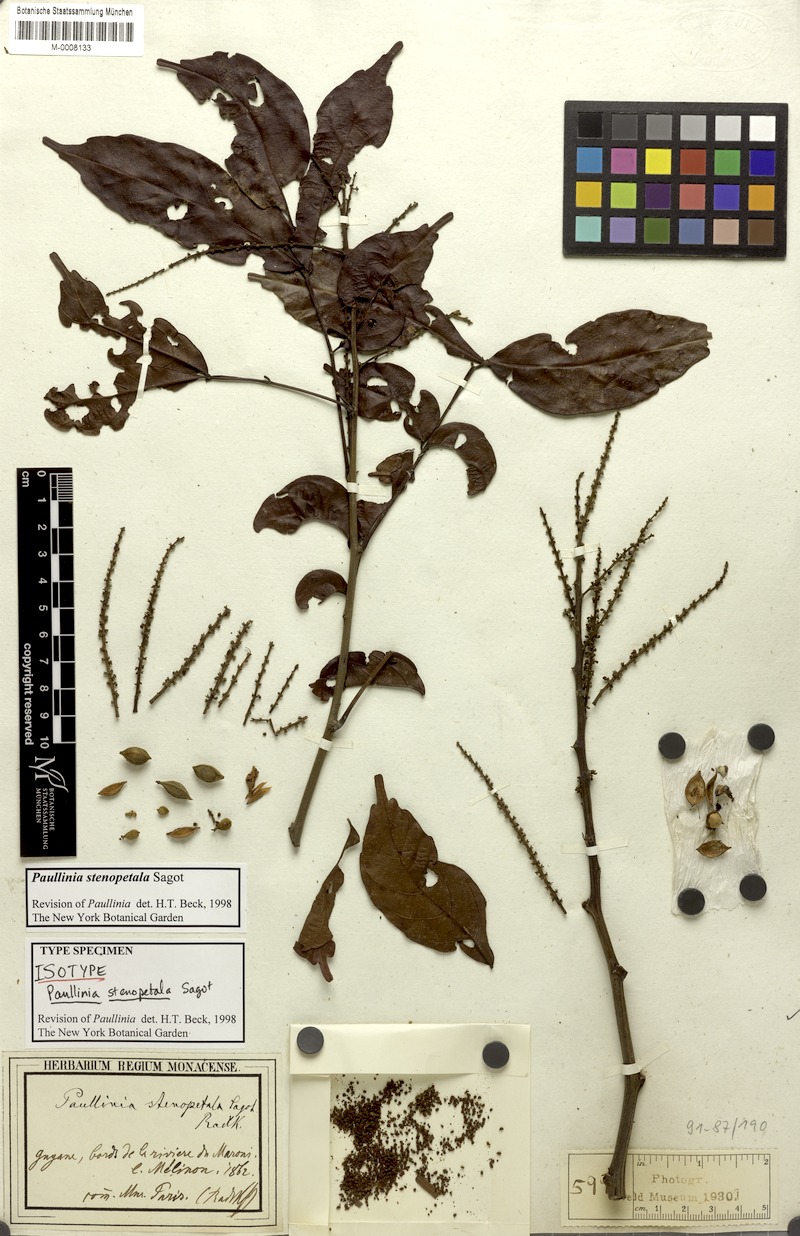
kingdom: Plantae
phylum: Tracheophyta
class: Magnoliopsida
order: Sapindales
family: Sapindaceae
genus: Paullinia
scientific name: Paullinia stenopetala
